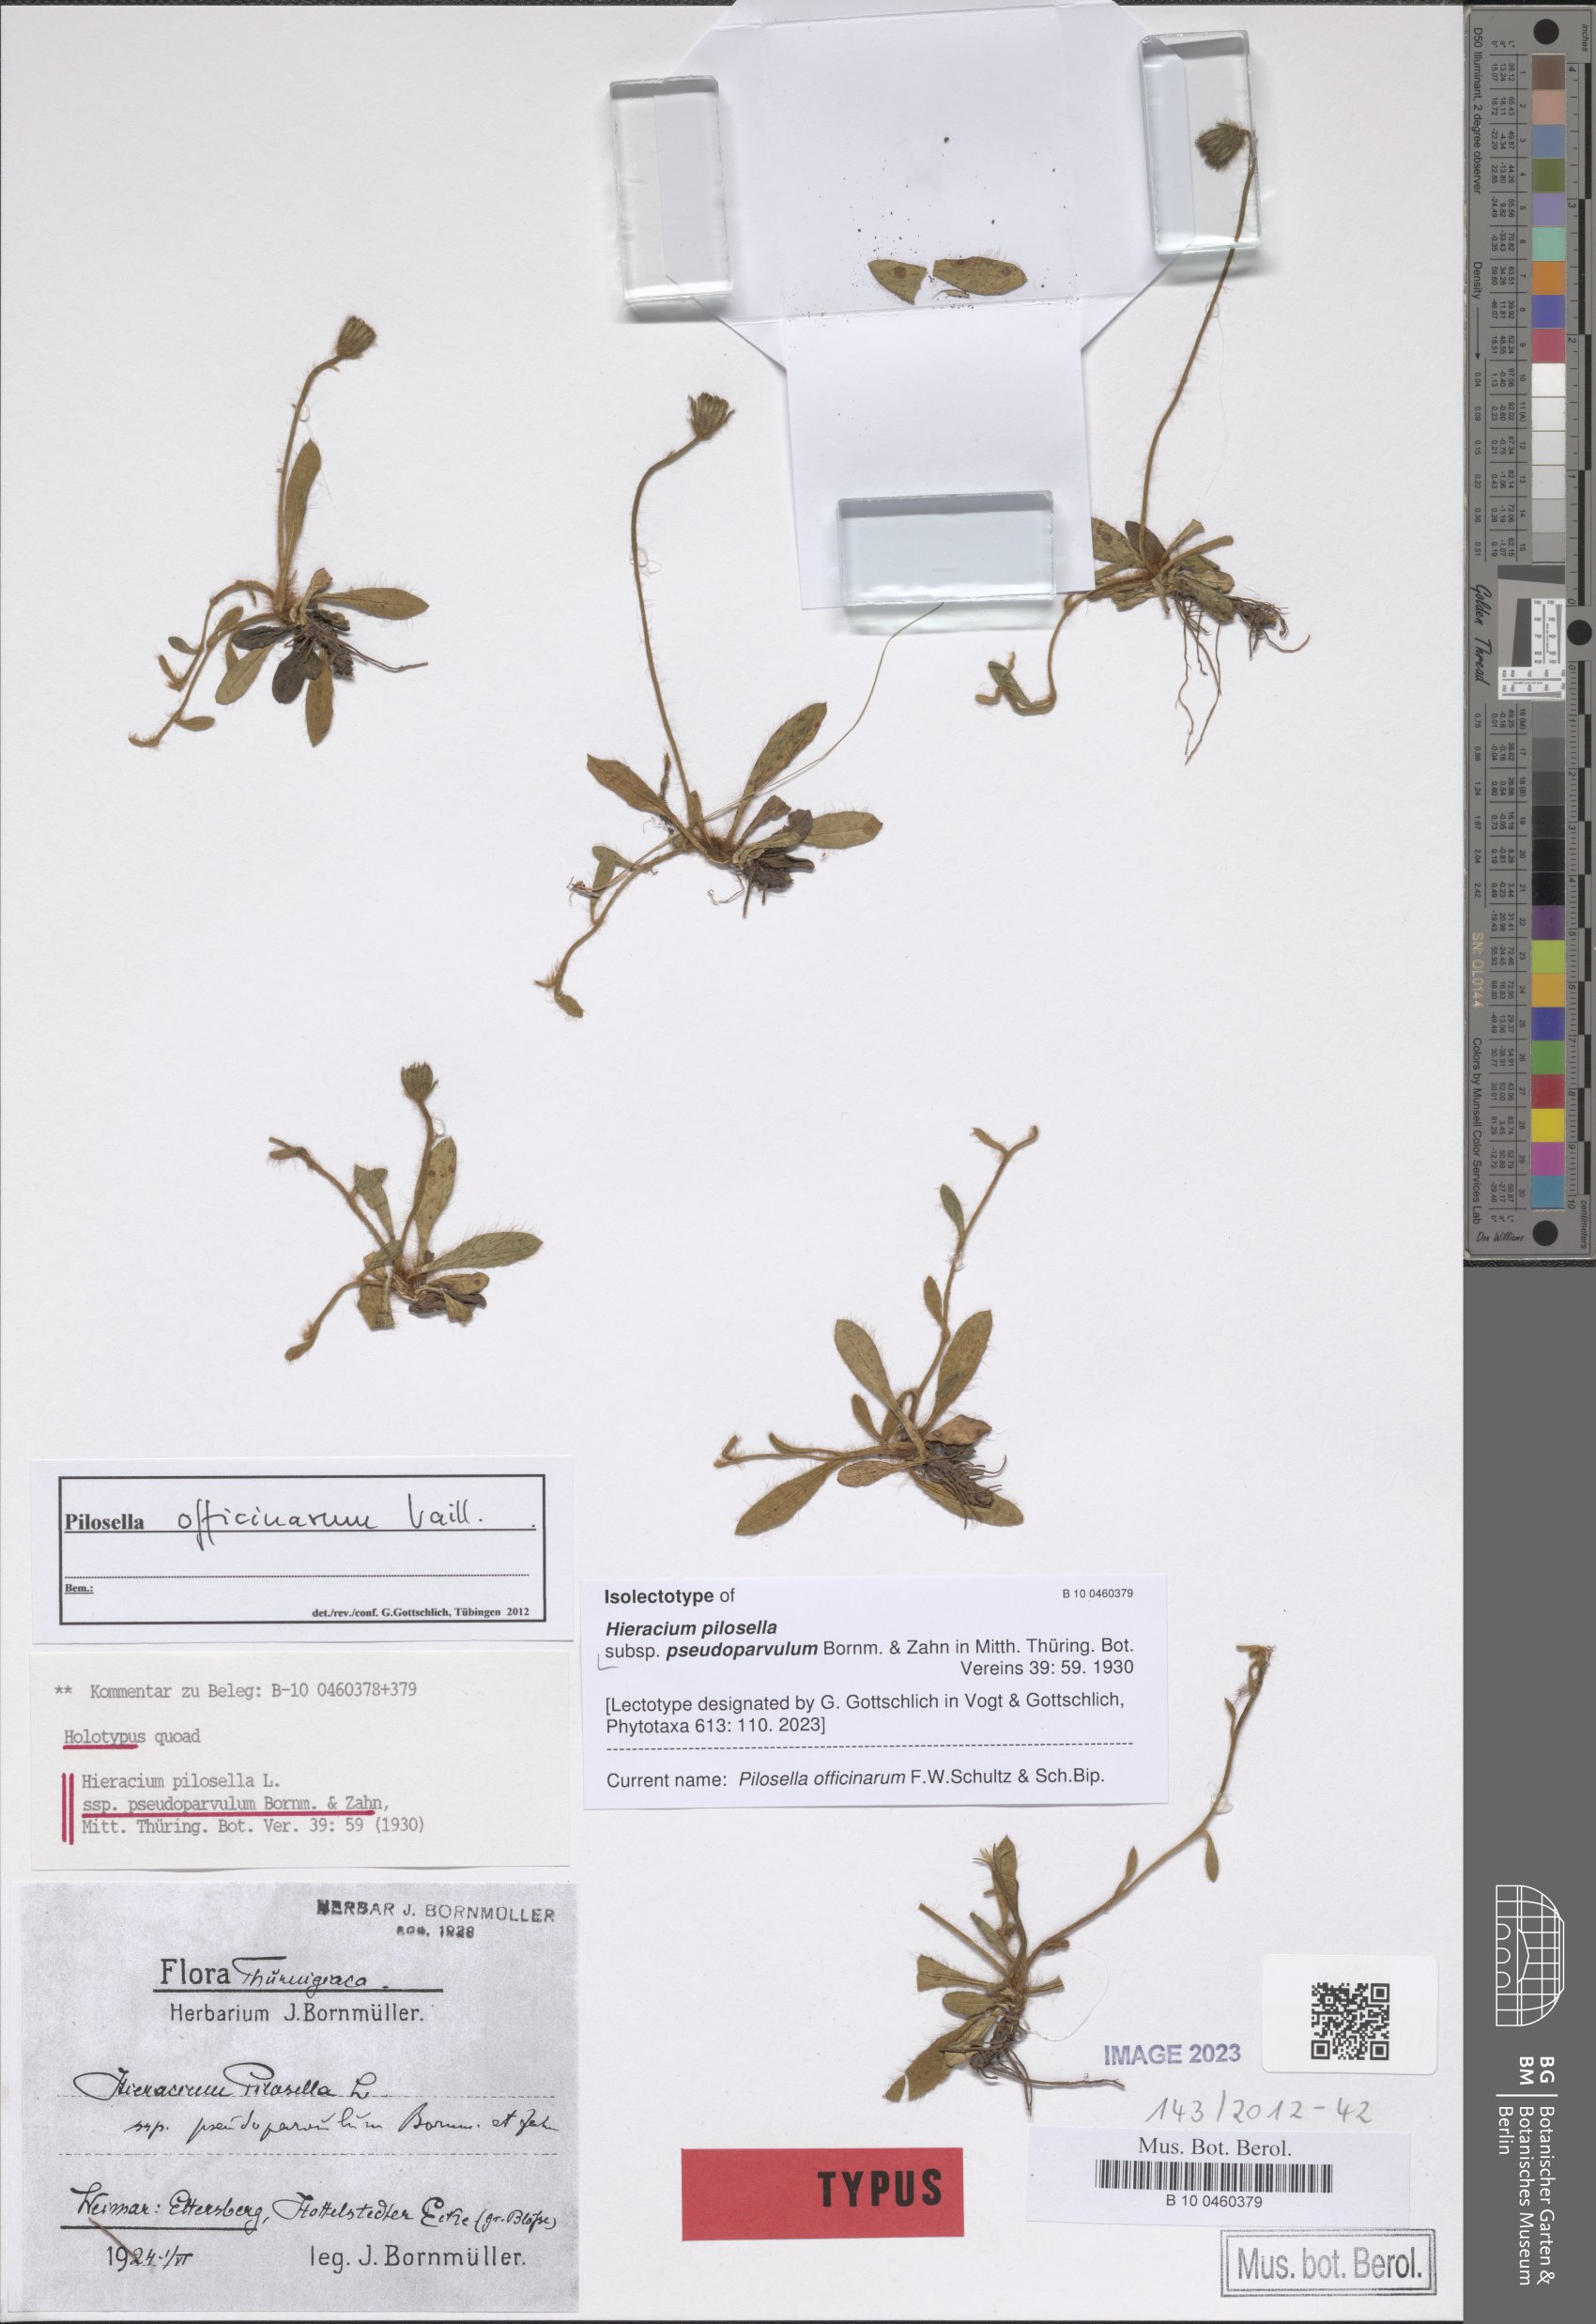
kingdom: Plantae
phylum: Tracheophyta
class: Magnoliopsida
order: Asterales
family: Asteraceae
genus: Pilosella
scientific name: Pilosella officinarum
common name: Mouse-ear hawkweed
